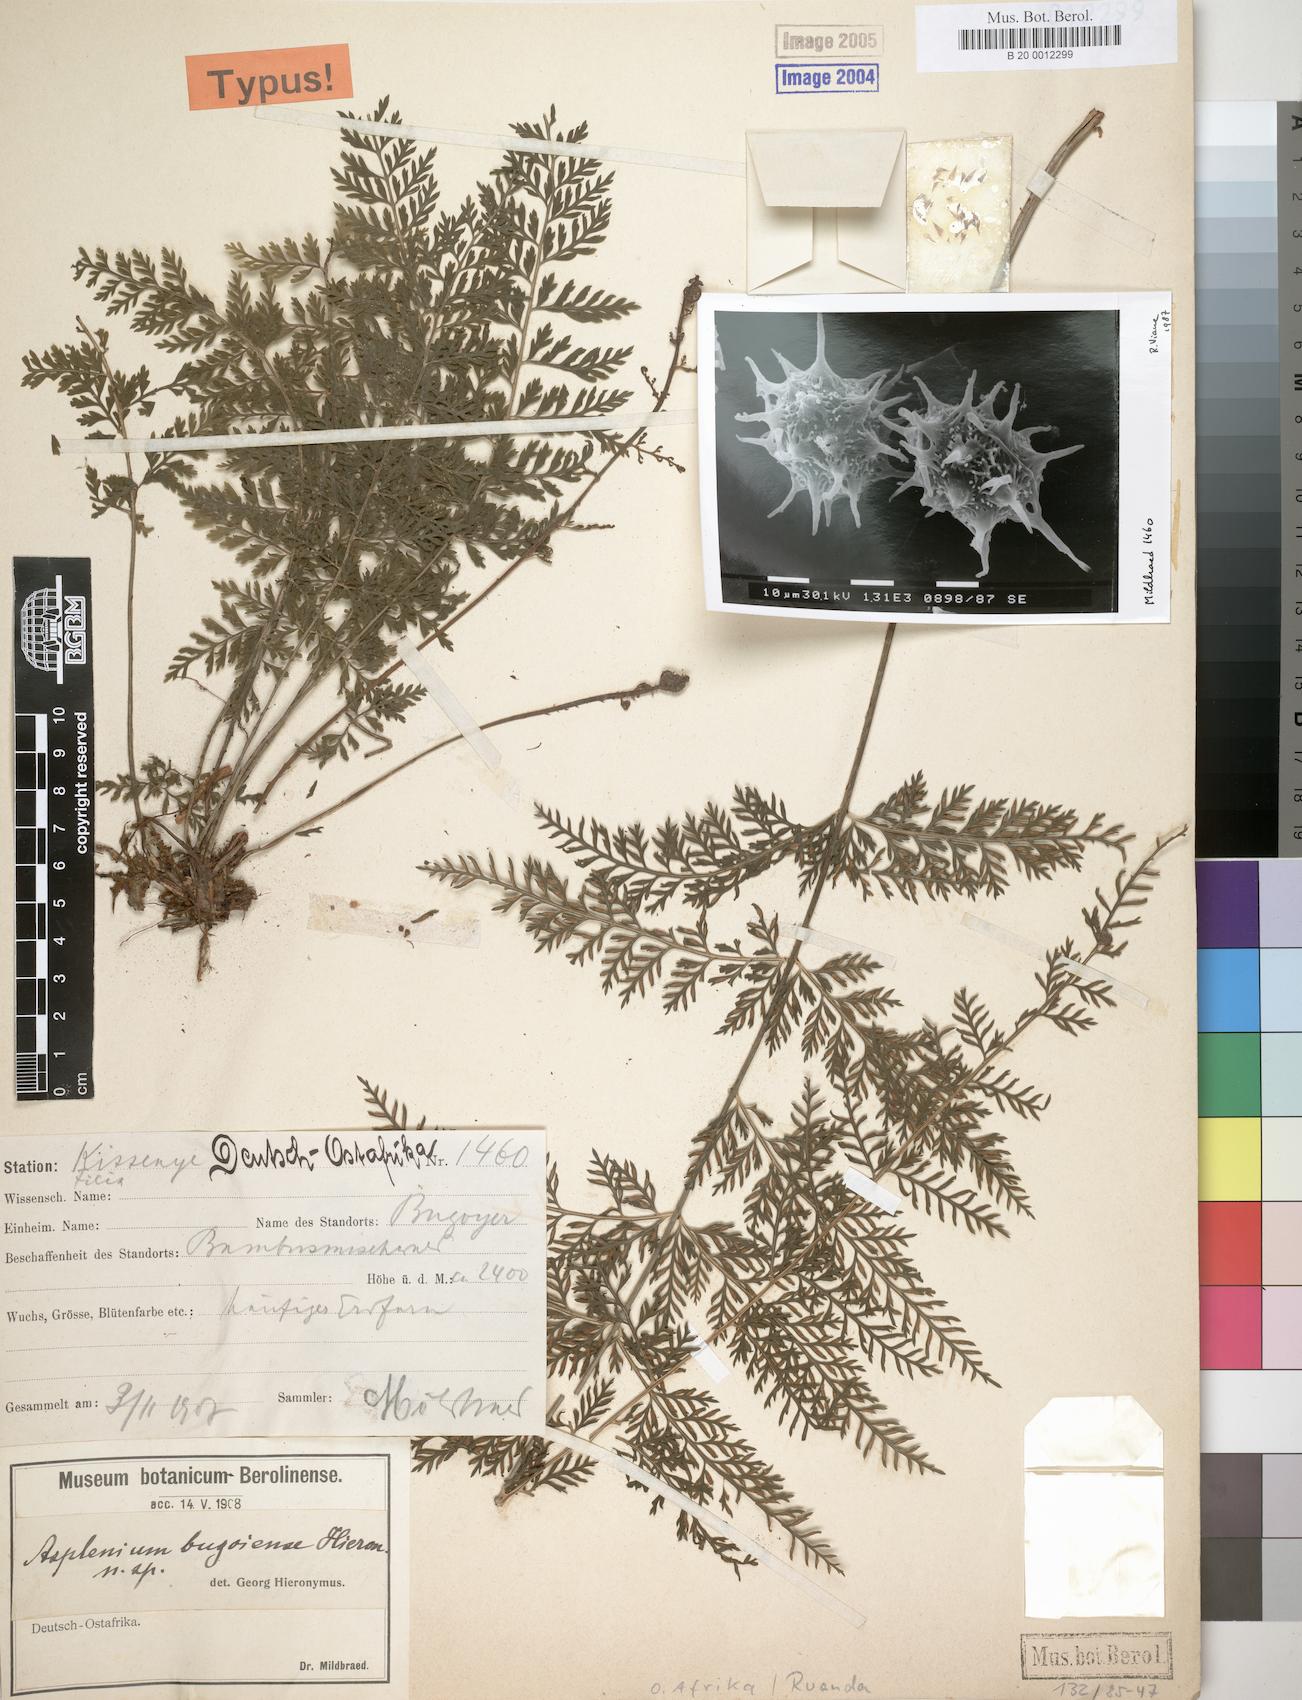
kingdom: Plantae
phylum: Tracheophyta
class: Polypodiopsida
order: Polypodiales
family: Aspleniaceae
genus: Asplenium
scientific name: Asplenium bugoiense
